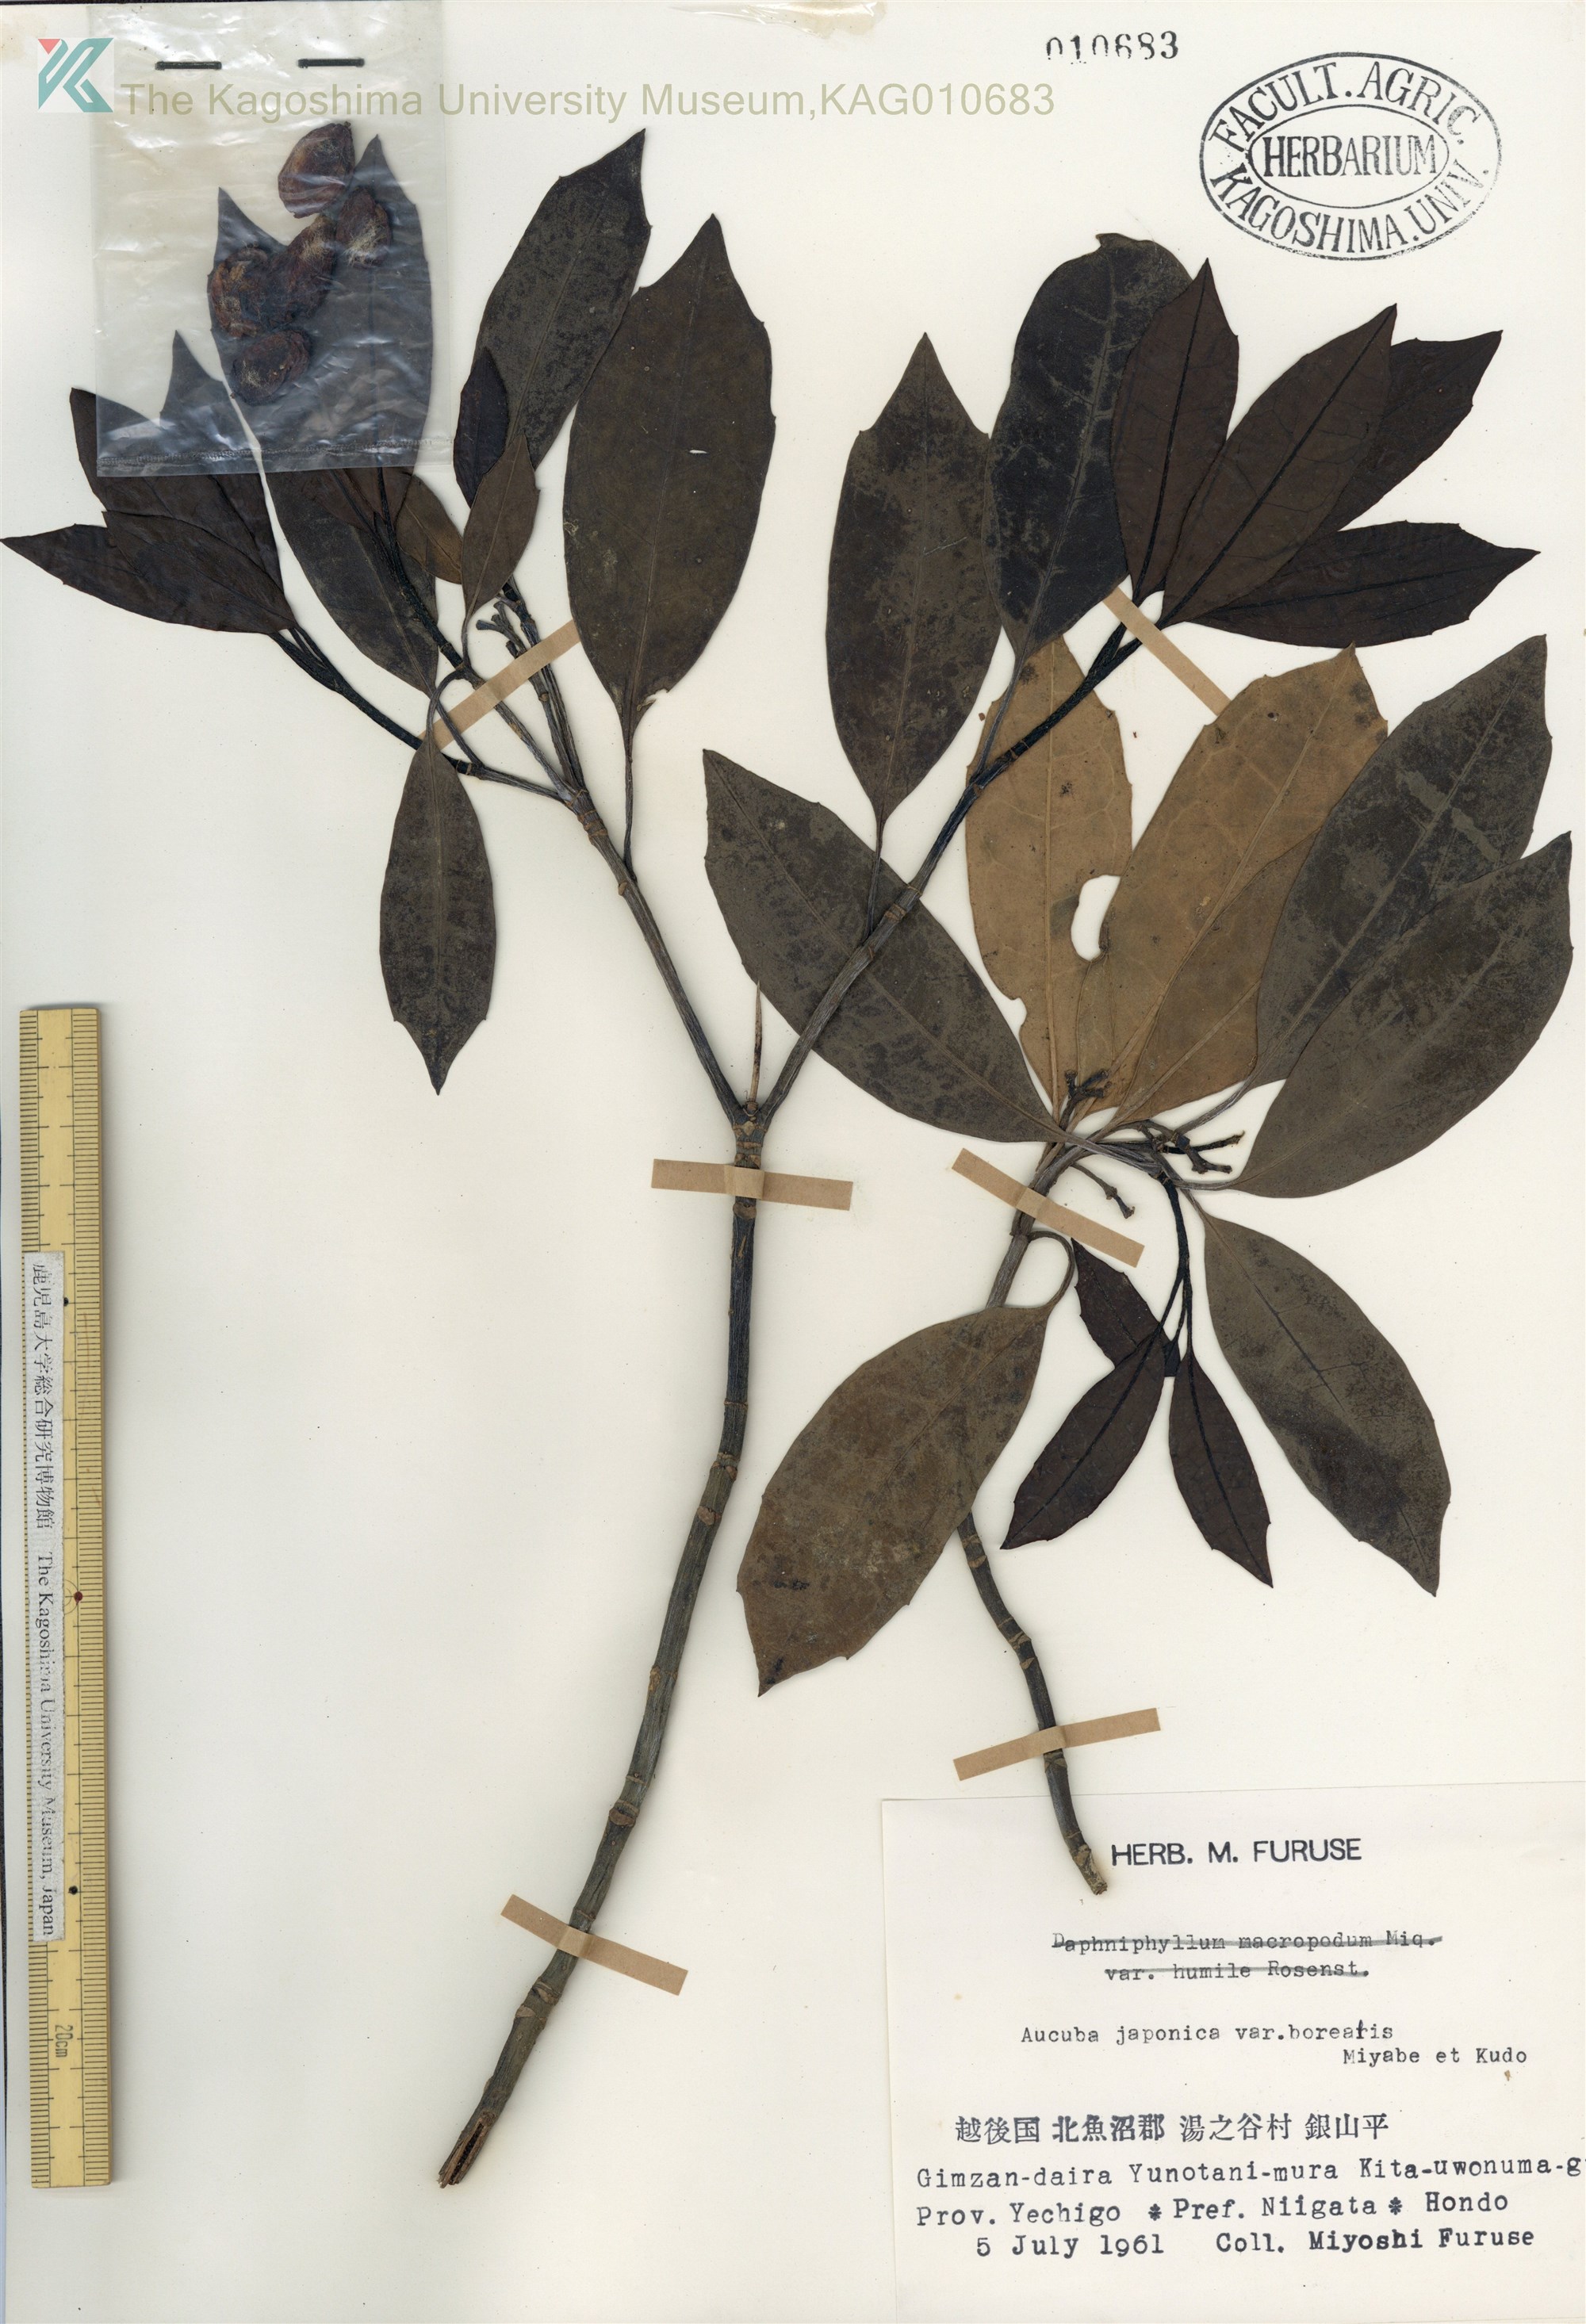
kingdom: Plantae
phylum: Tracheophyta
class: Magnoliopsida
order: Garryales
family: Garryaceae
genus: Aucuba
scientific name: Aucuba japonica
